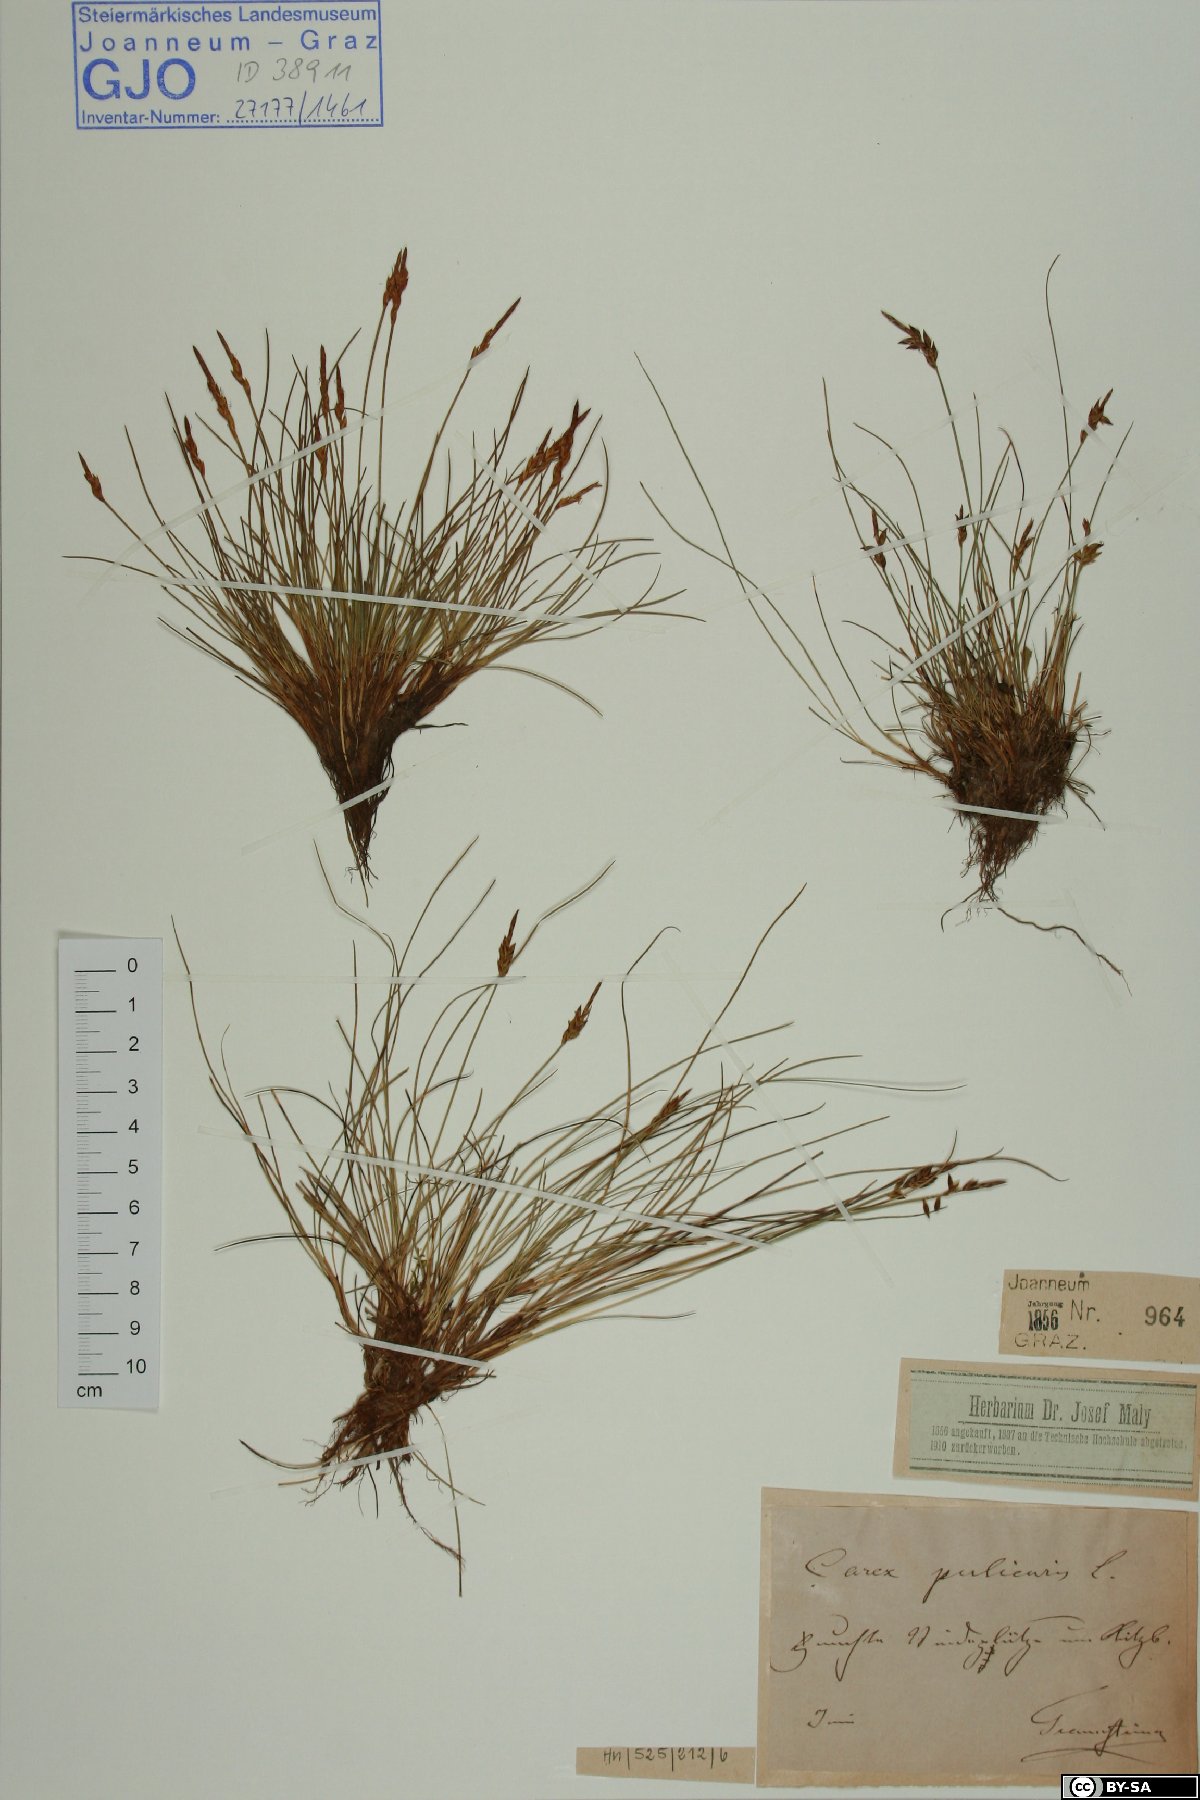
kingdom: Plantae
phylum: Tracheophyta
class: Liliopsida
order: Poales
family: Cyperaceae
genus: Carex
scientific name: Carex pulicaris
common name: Flea sedge
